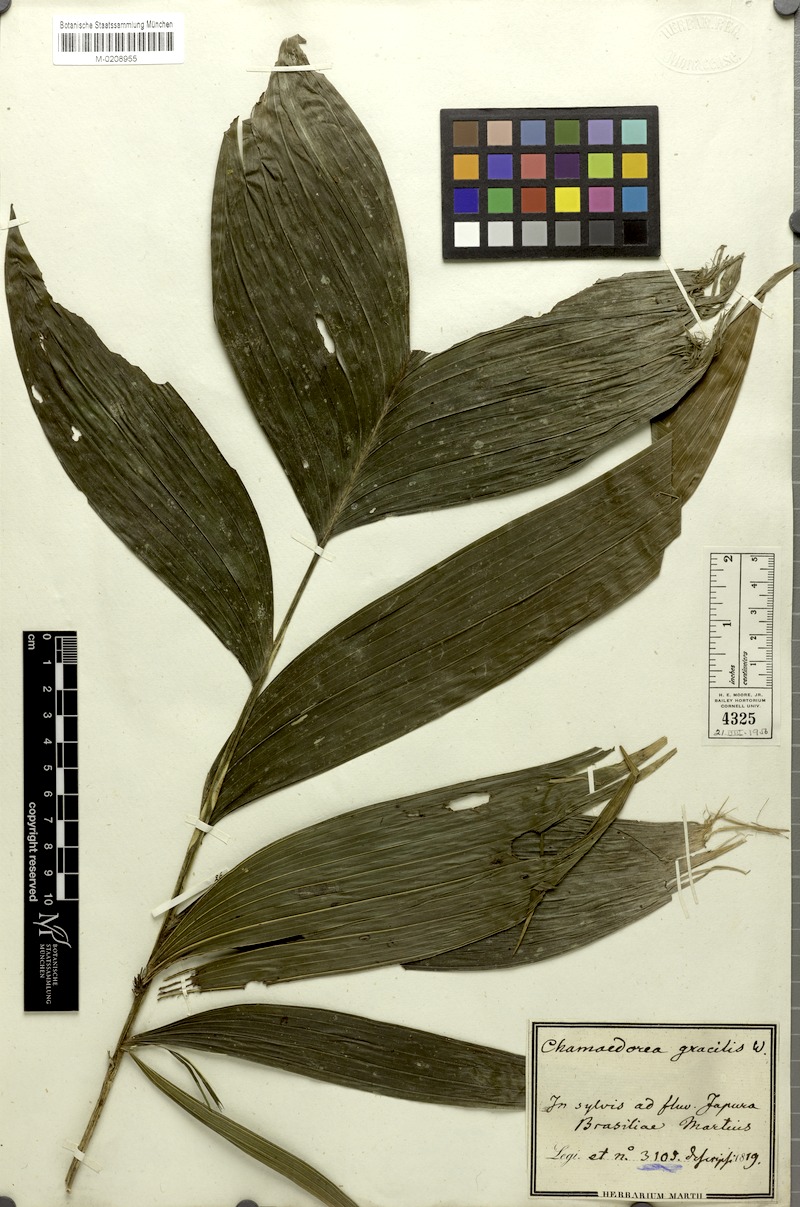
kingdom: Plantae
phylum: Tracheophyta
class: Liliopsida
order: Arecales
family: Arecaceae
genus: Chamaedorea
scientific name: Chamaedorea pinnatifrons
